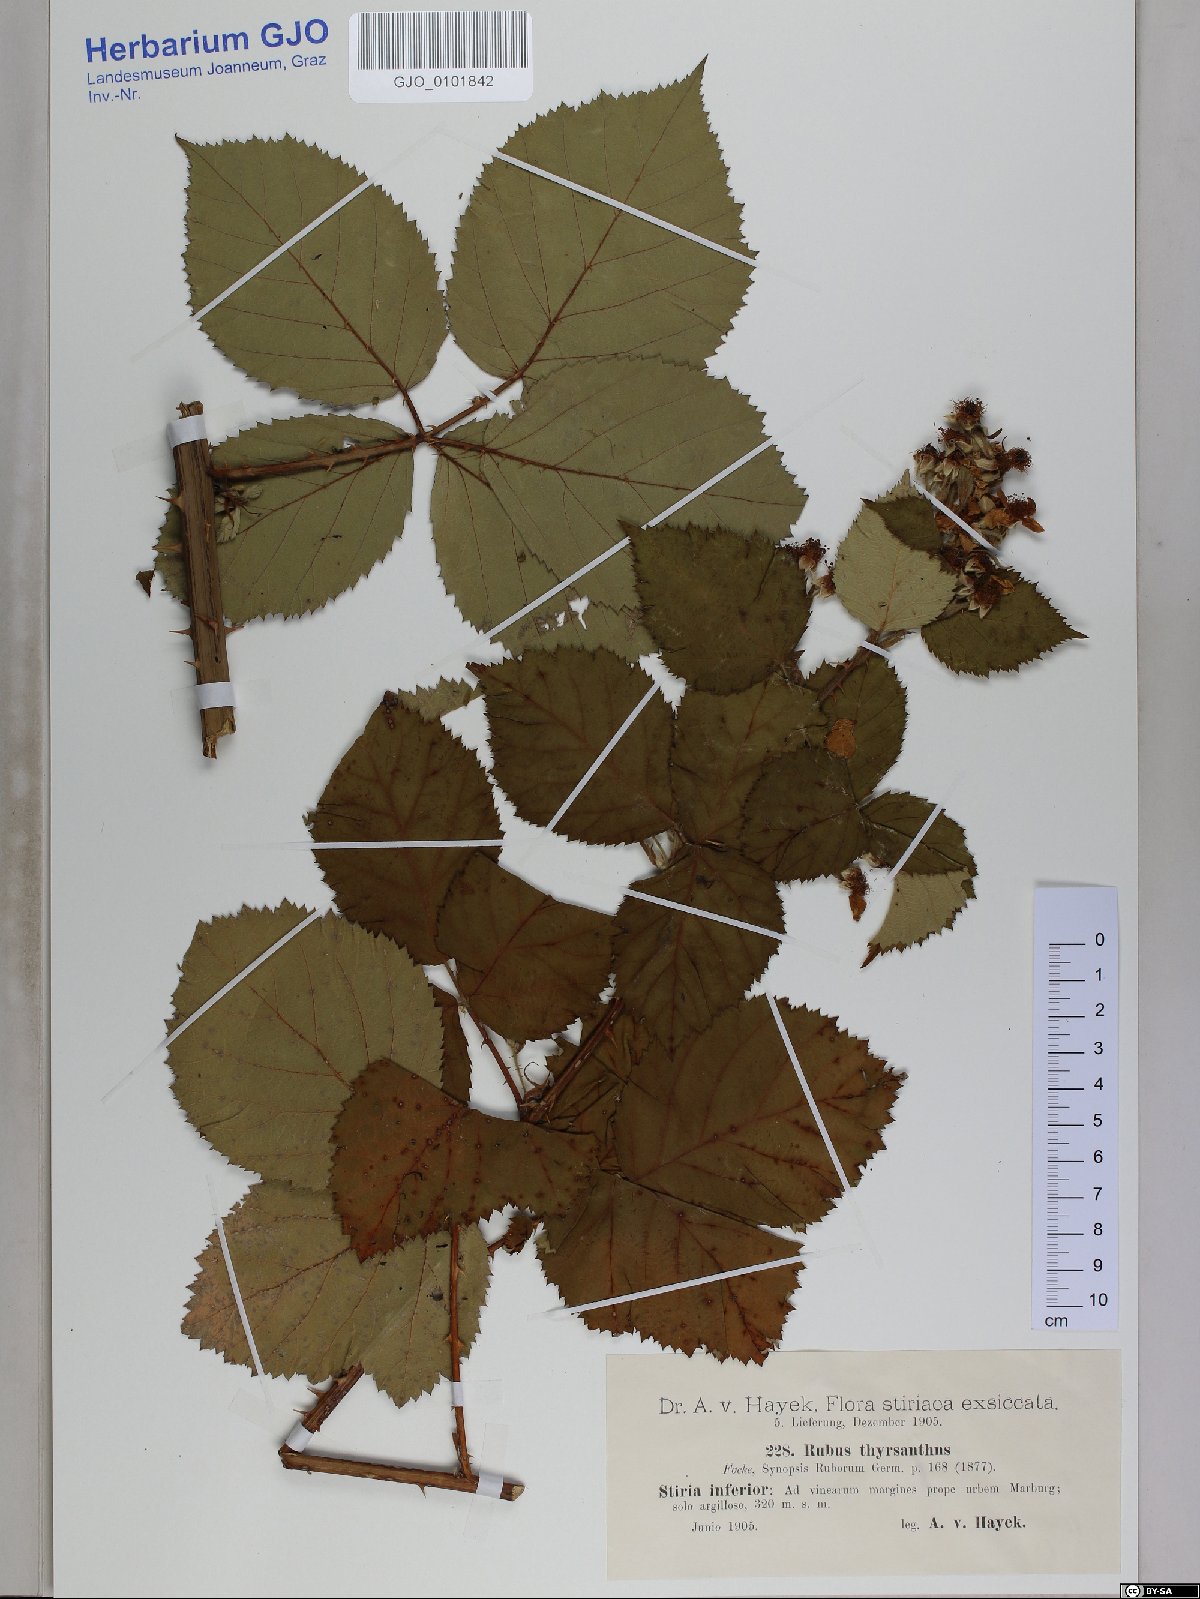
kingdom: Plantae
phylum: Tracheophyta
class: Magnoliopsida
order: Rosales
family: Rosaceae
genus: Rubus
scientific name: Rubus grabowskii
